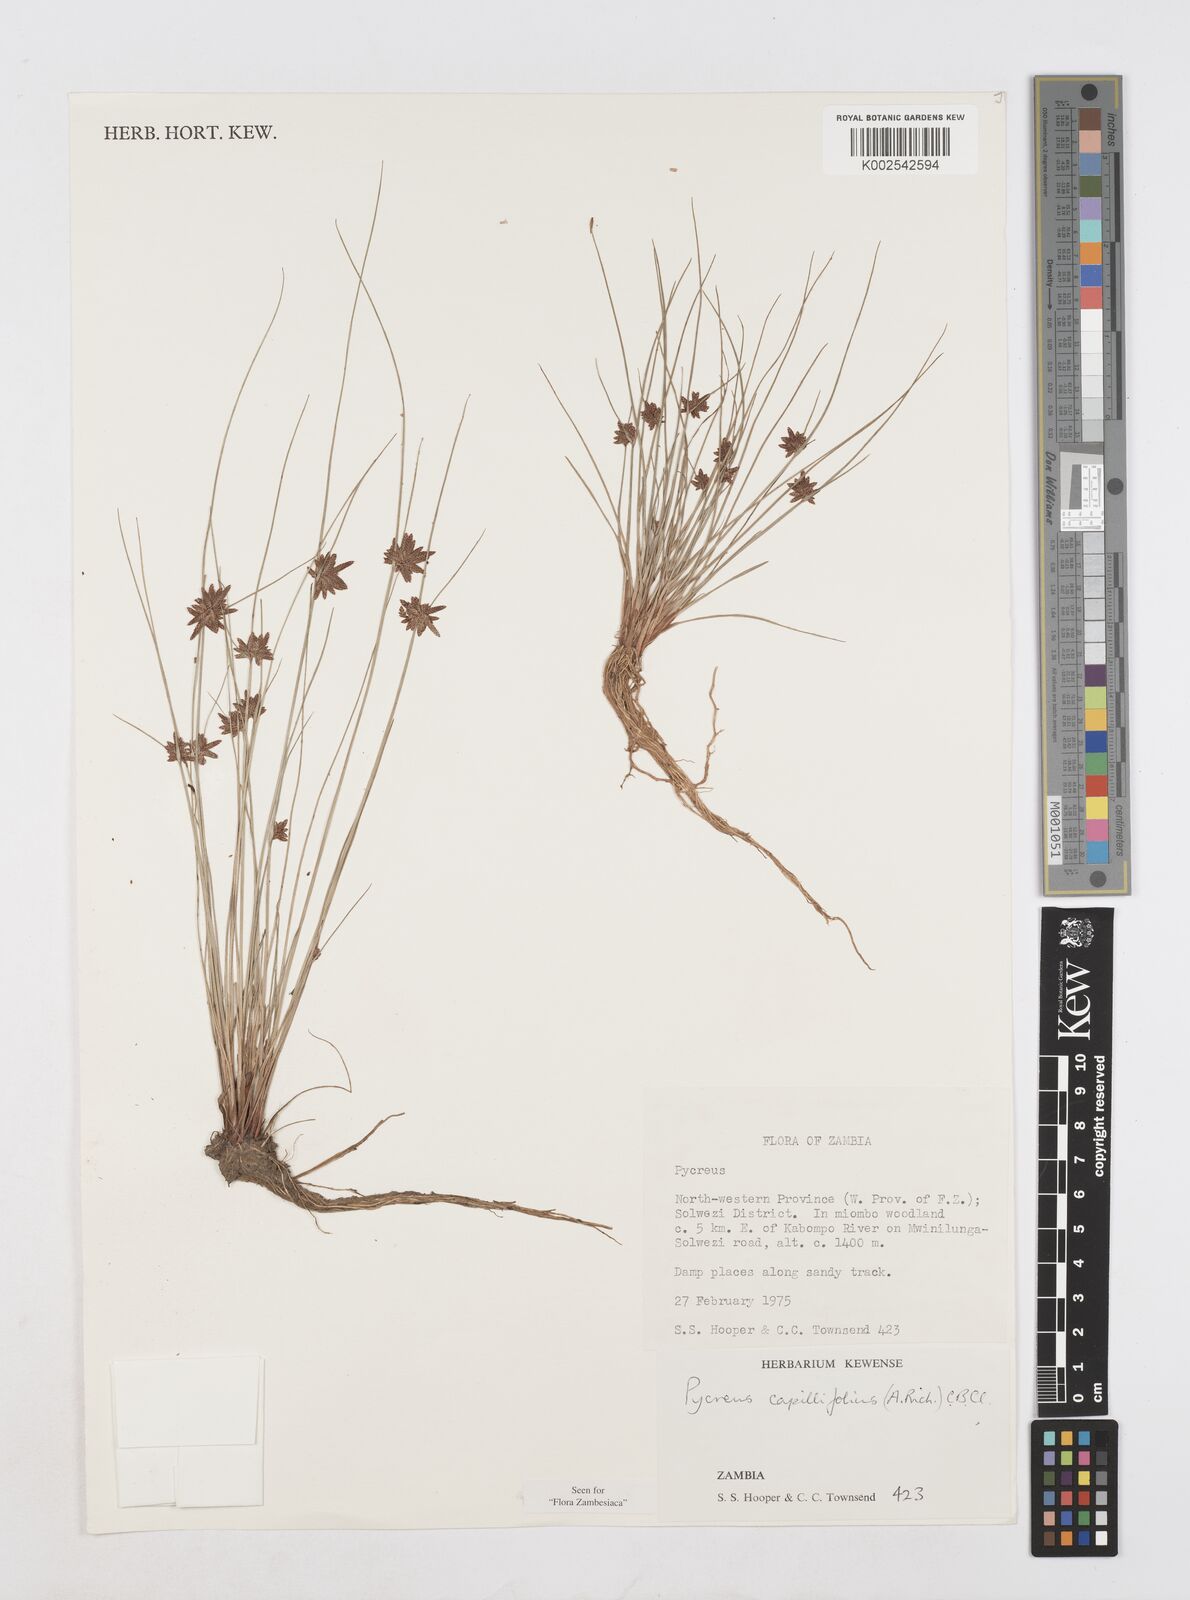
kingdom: Plantae
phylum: Tracheophyta
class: Liliopsida
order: Poales
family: Cyperaceae
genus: Cyperus
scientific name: Cyperus capillifolius
